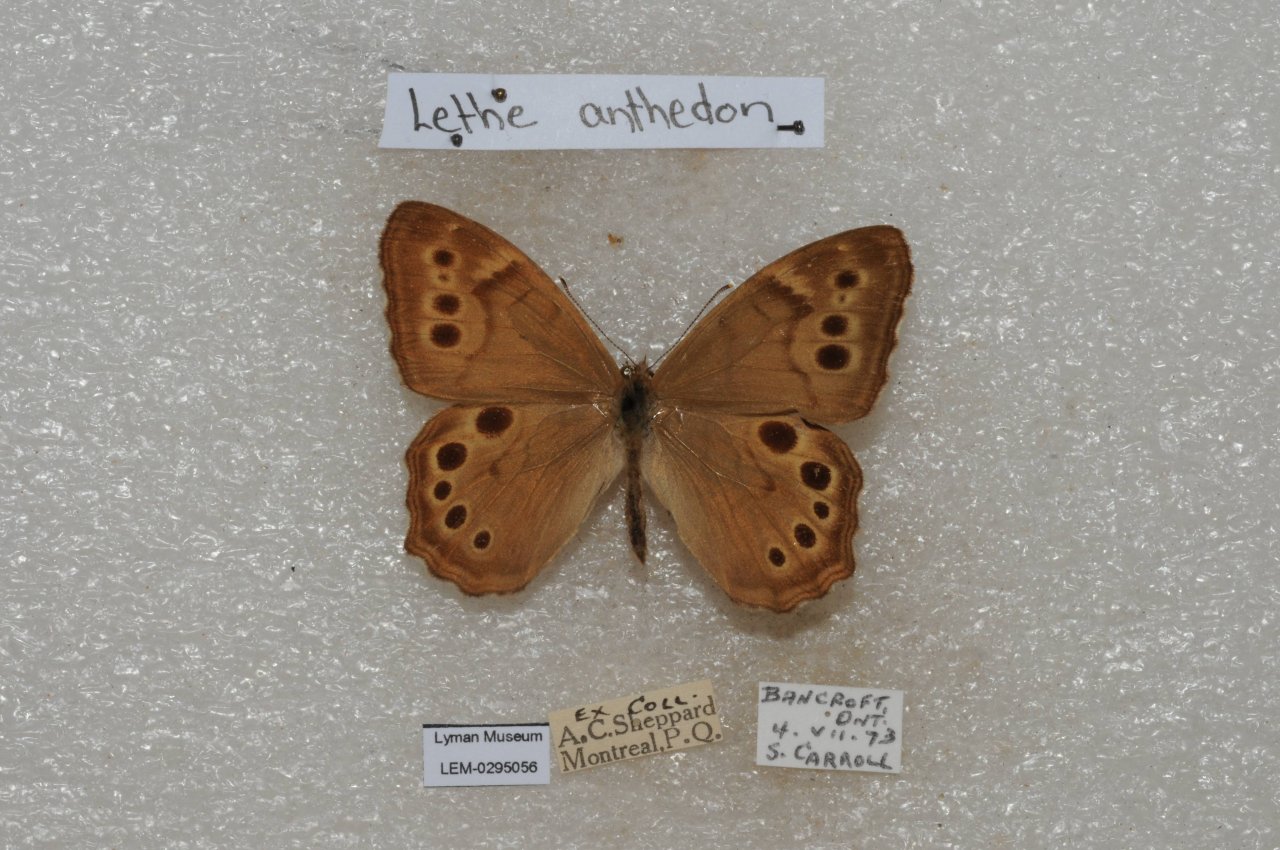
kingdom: Animalia
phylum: Arthropoda
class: Insecta
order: Lepidoptera
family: Nymphalidae
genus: Lethe
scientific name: Lethe anthedon
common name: Northern Pearly-Eye
